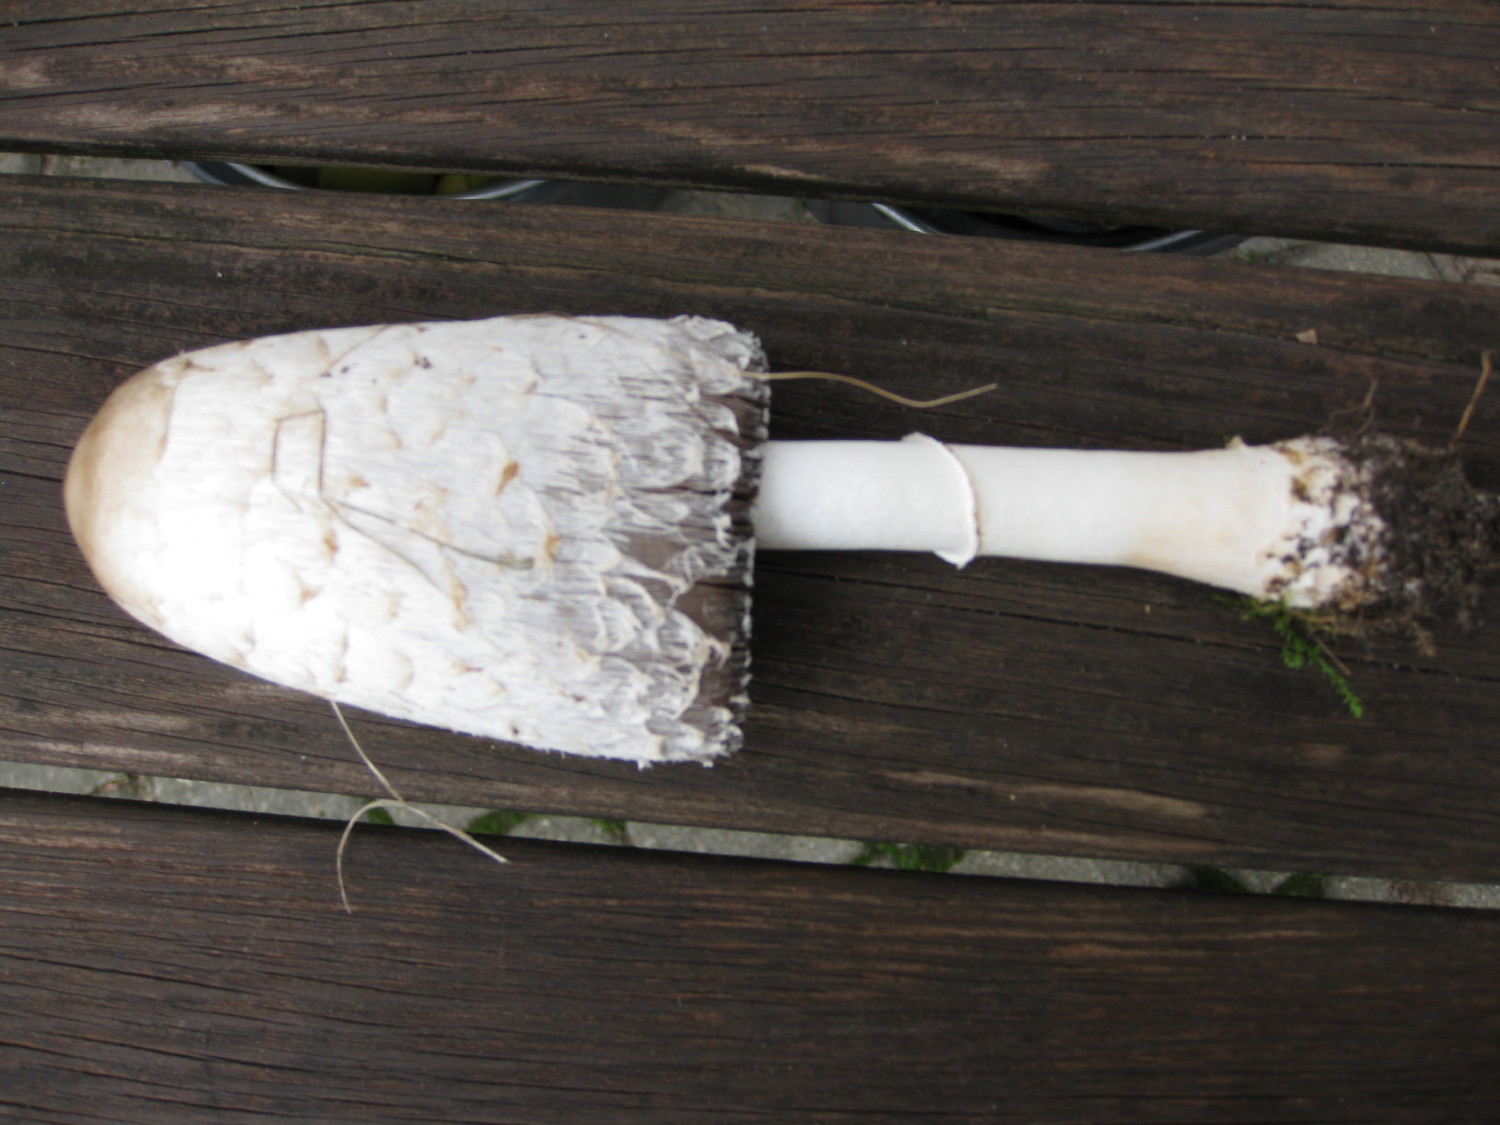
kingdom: Fungi
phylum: Basidiomycota
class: Agaricomycetes
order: Agaricales
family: Agaricaceae
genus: Coprinus
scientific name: Coprinus comatus
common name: stor parykhat
